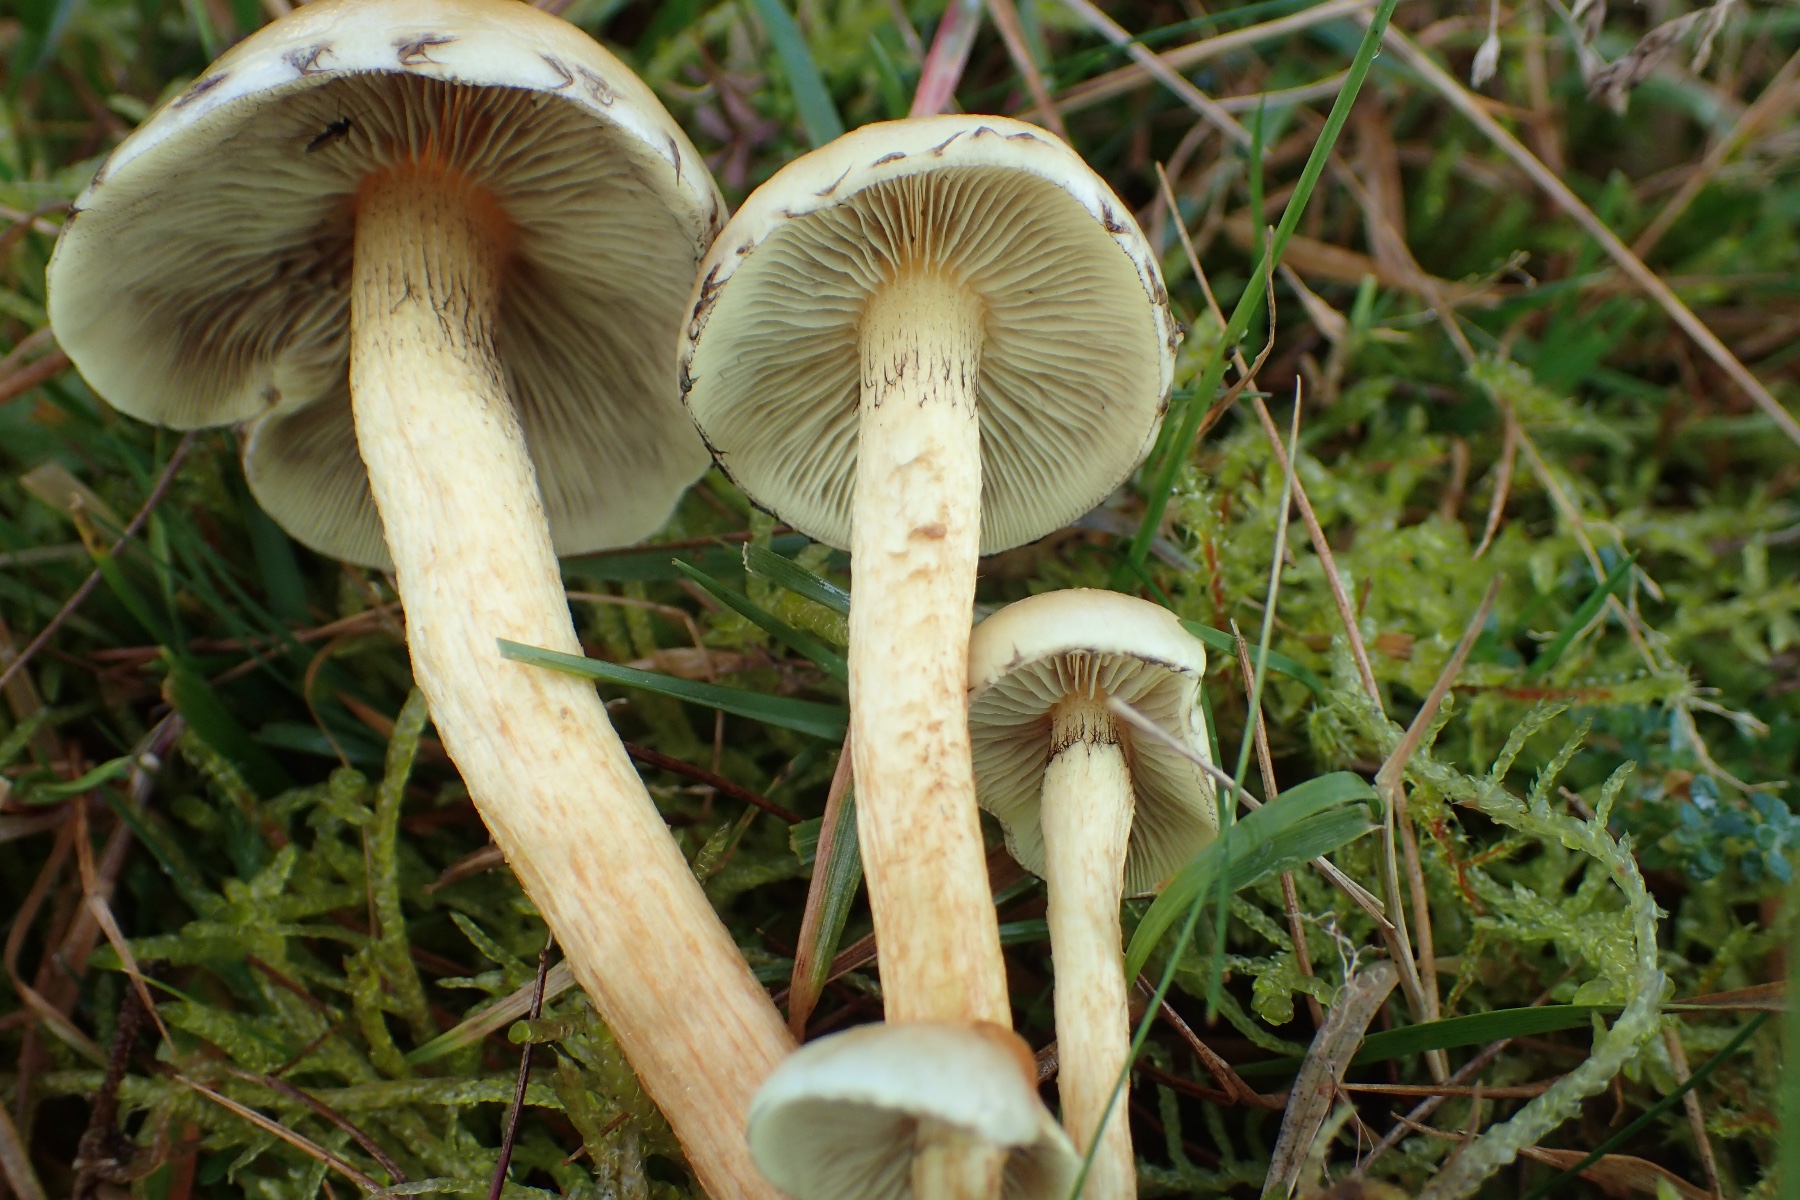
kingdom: Fungi
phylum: Basidiomycota
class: Agaricomycetes
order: Agaricales
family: Strophariaceae
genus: Hypholoma
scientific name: Hypholoma fasciculare
